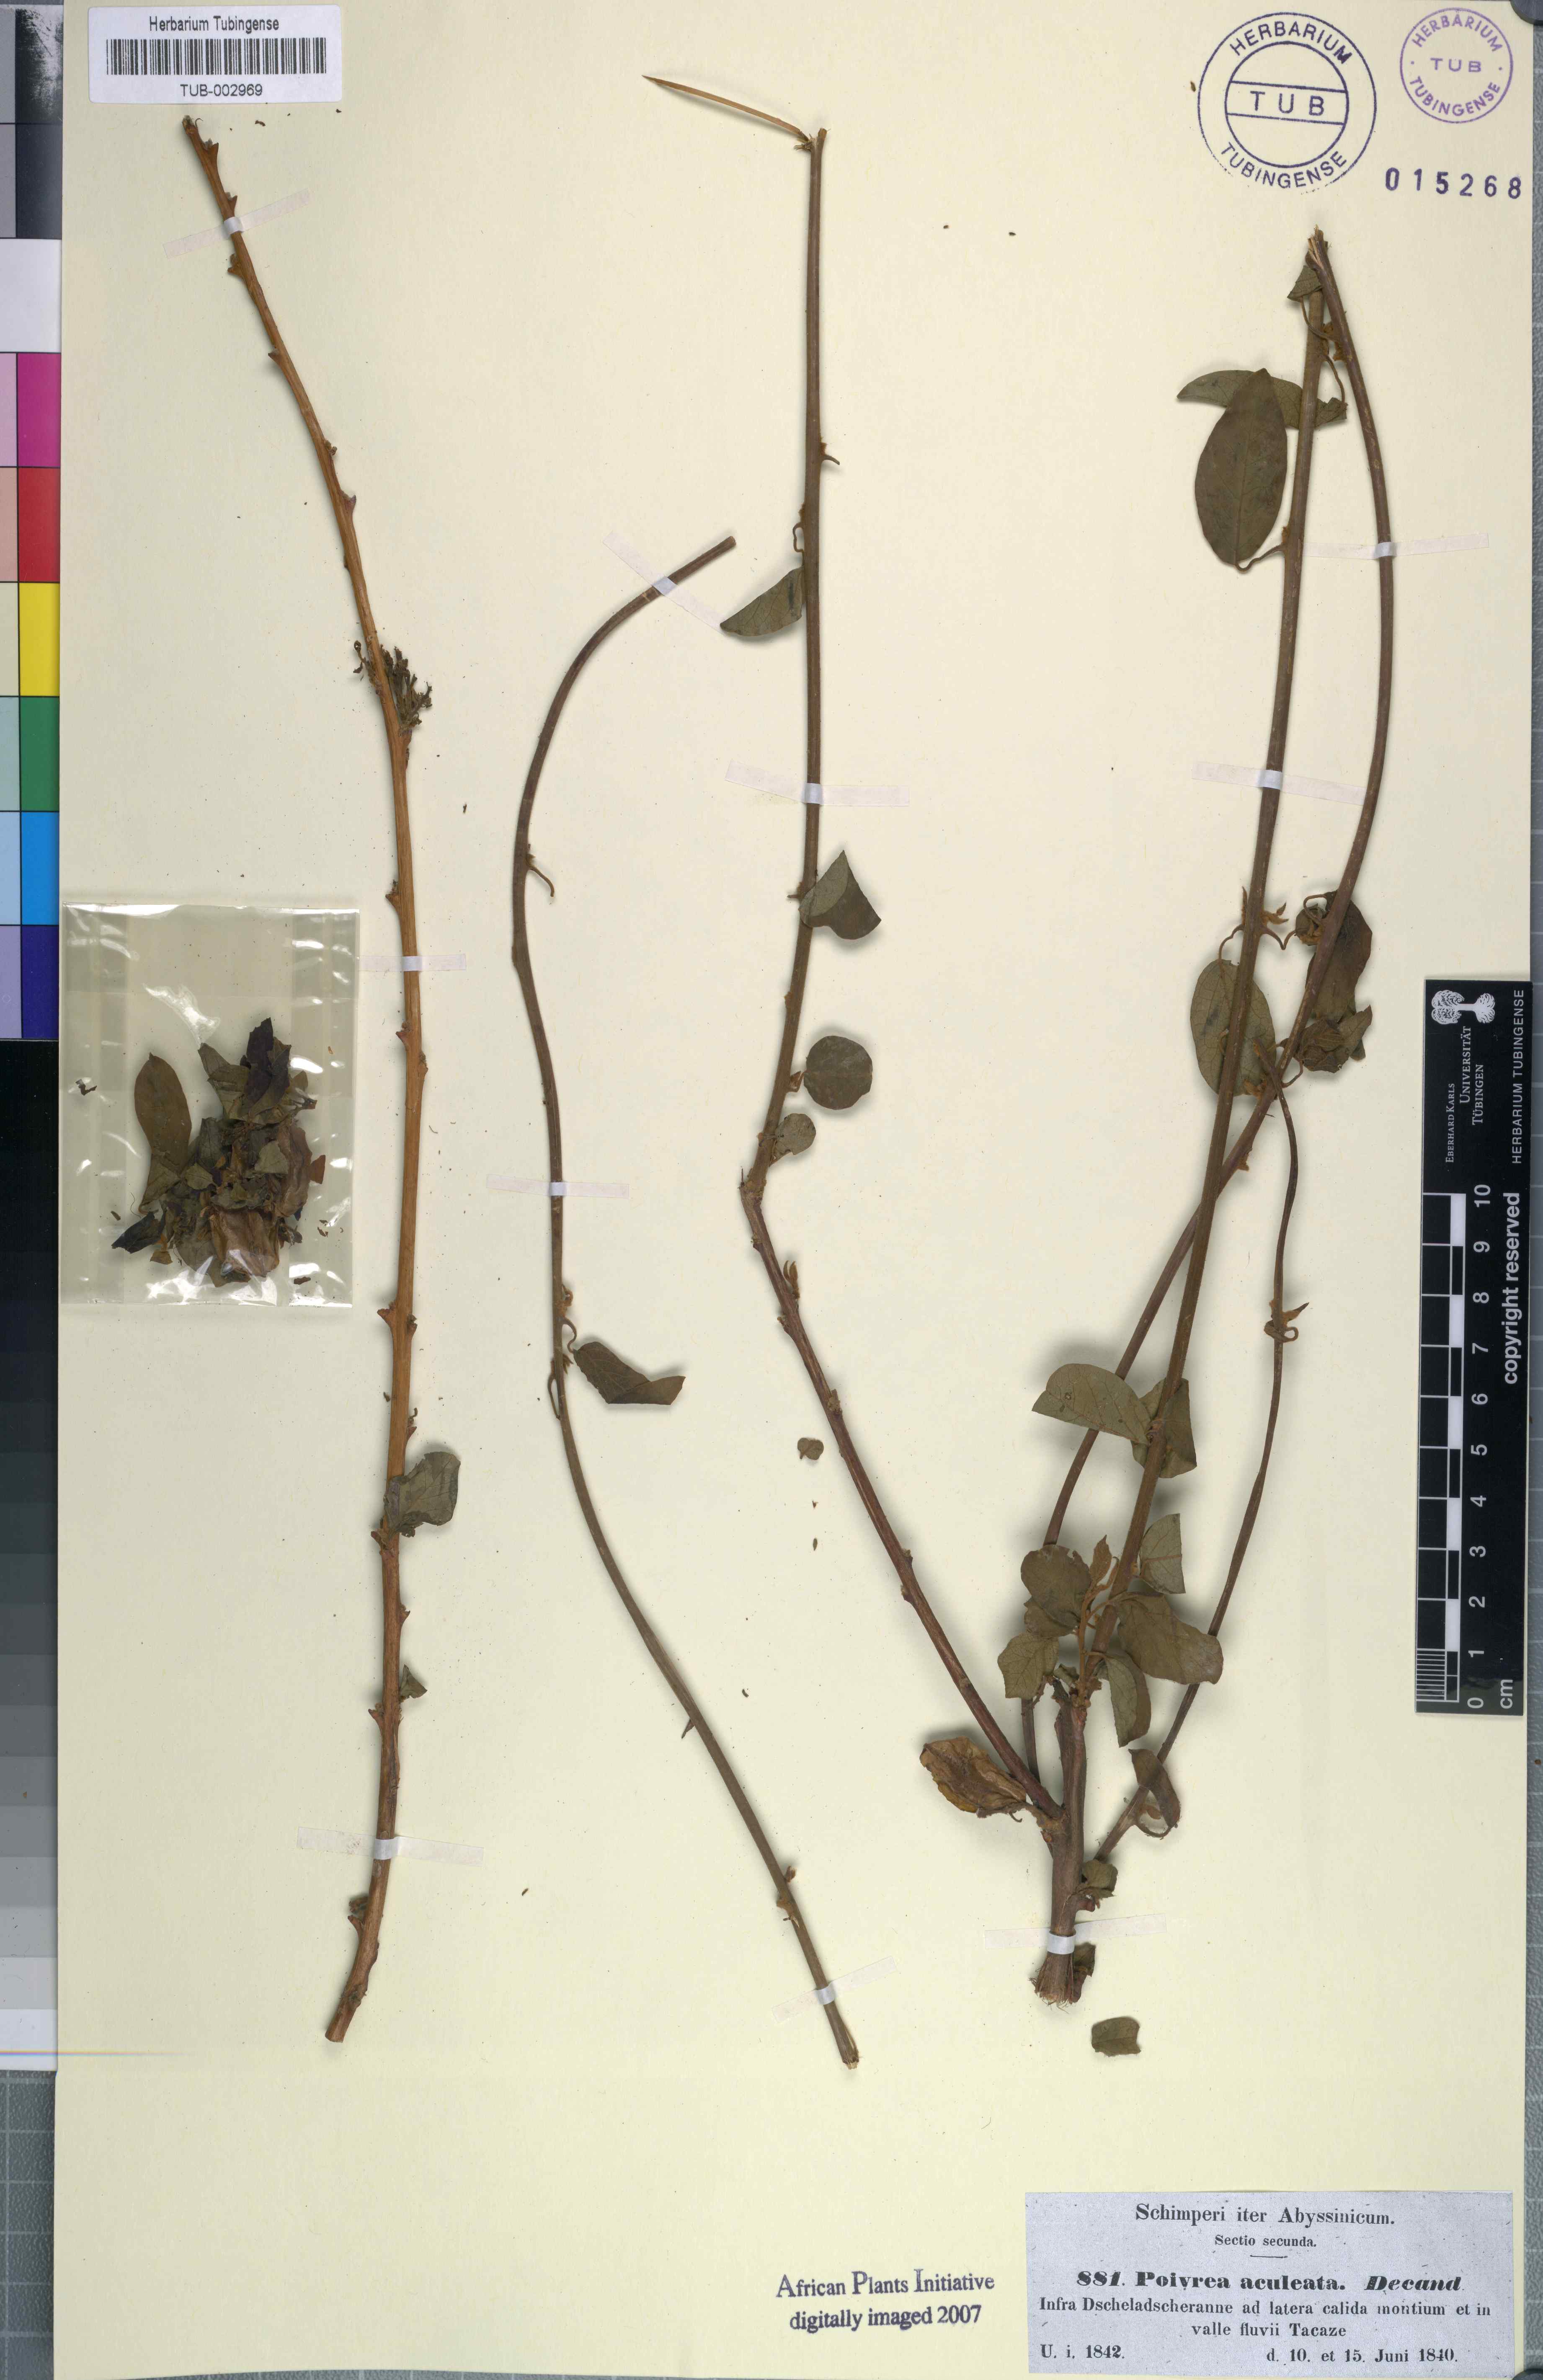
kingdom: Plantae
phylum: Tracheophyta
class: Magnoliopsida
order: Myrtales
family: Combretaceae
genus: Combretum
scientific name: Combretum aculeatum
